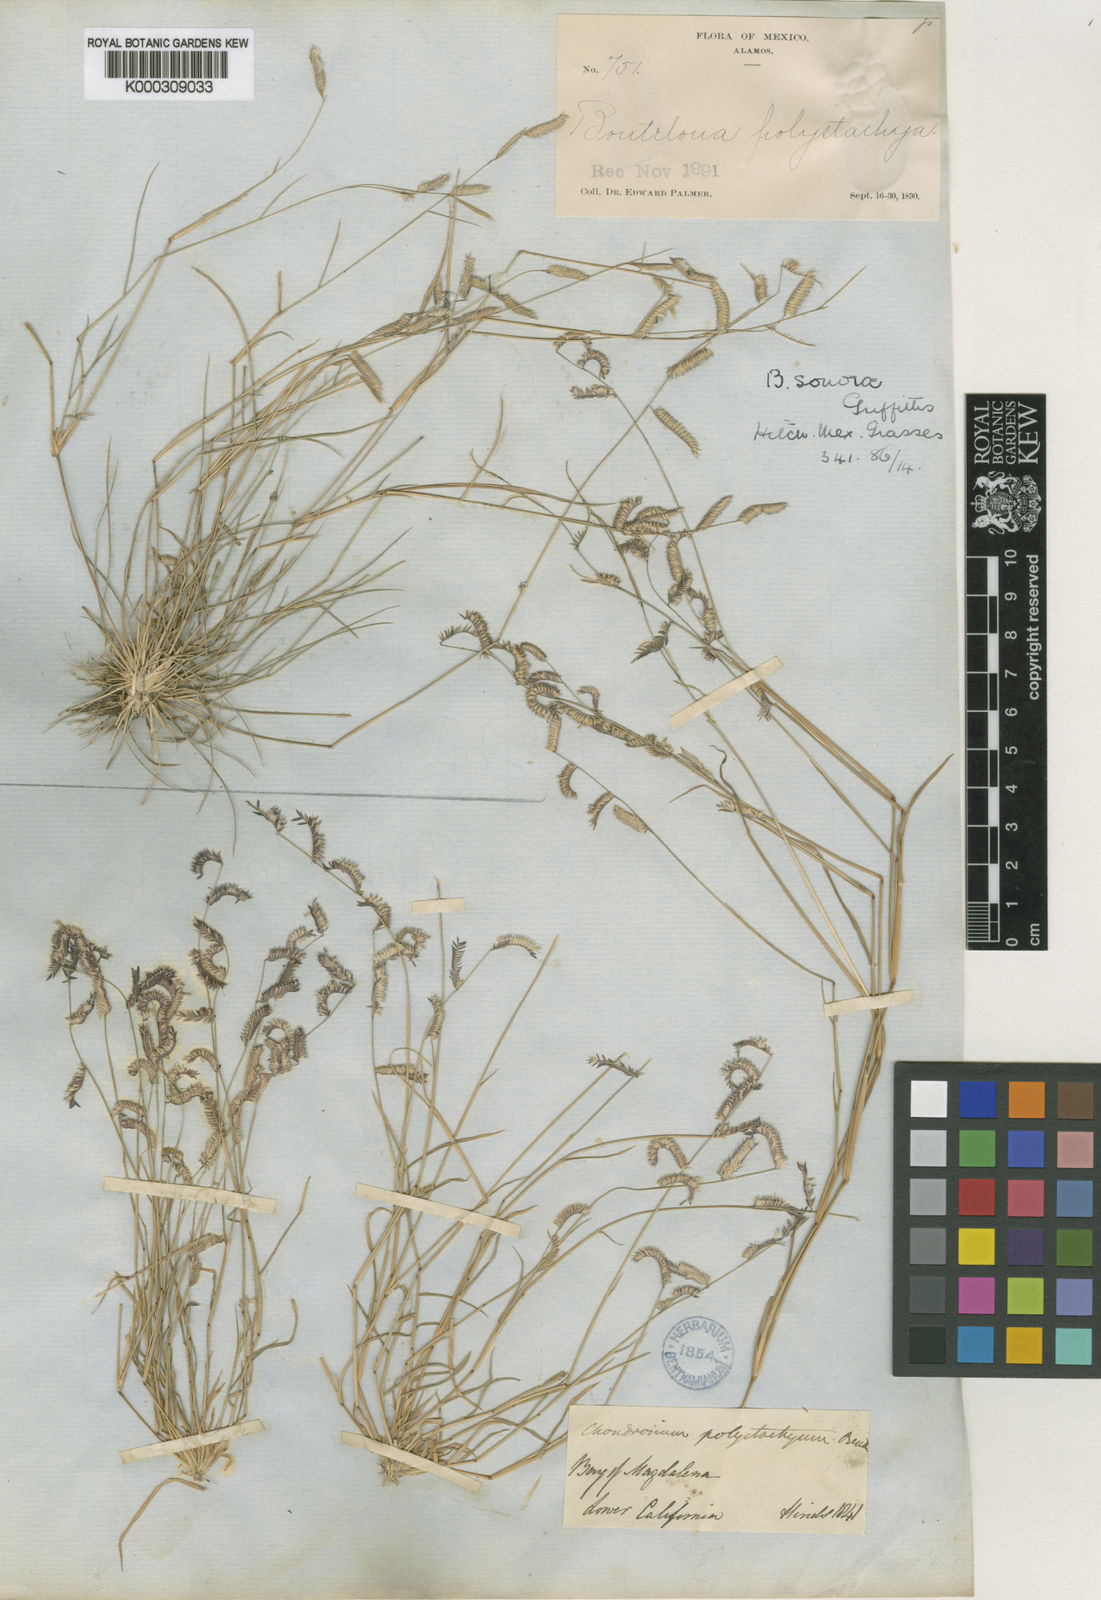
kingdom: Plantae
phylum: Tracheophyta
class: Liliopsida
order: Poales
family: Poaceae
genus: Bouteloua
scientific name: Bouteloua barbata
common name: Six-weeks grama
